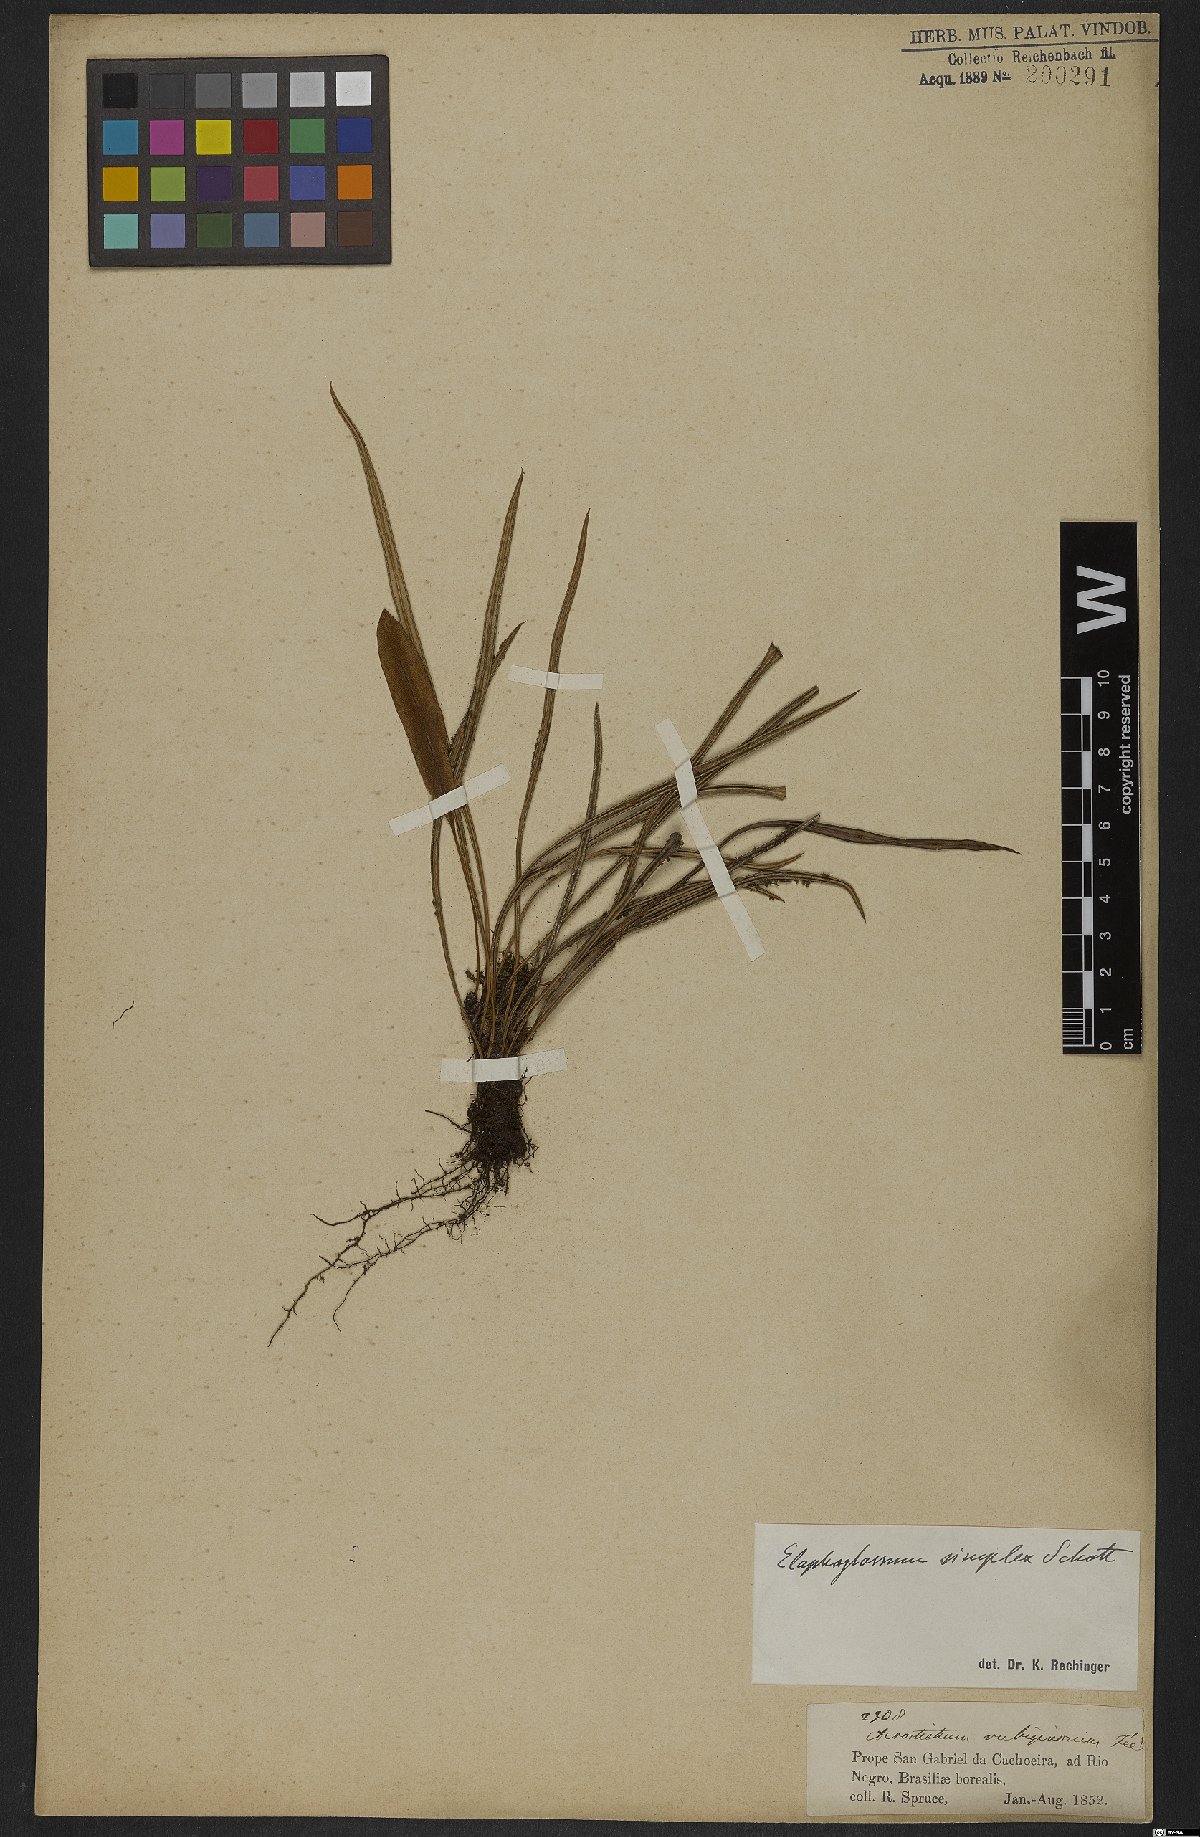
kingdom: Plantae
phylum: Tracheophyta
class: Polypodiopsida
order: Polypodiales
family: Dryopteridaceae
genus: Elaphoglossum
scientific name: Elaphoglossum simplex
